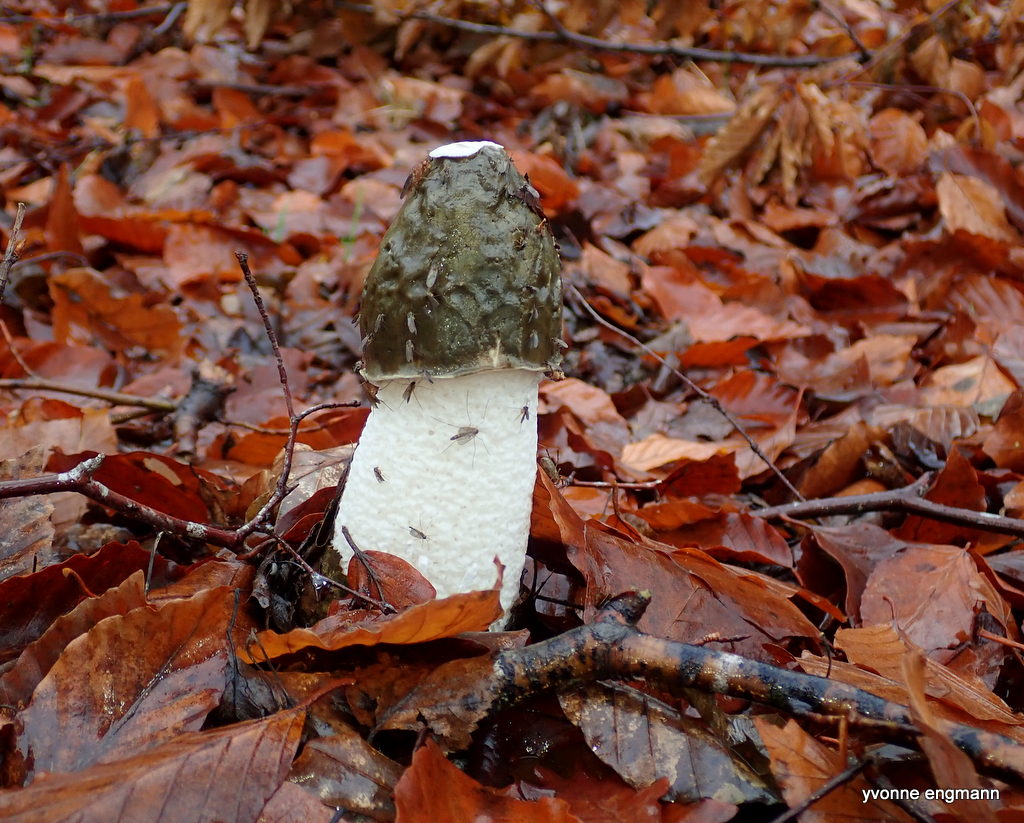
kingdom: Fungi
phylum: Basidiomycota
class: Agaricomycetes
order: Phallales
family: Phallaceae
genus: Phallus
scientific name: Phallus impudicus
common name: almindelig stinksvamp
